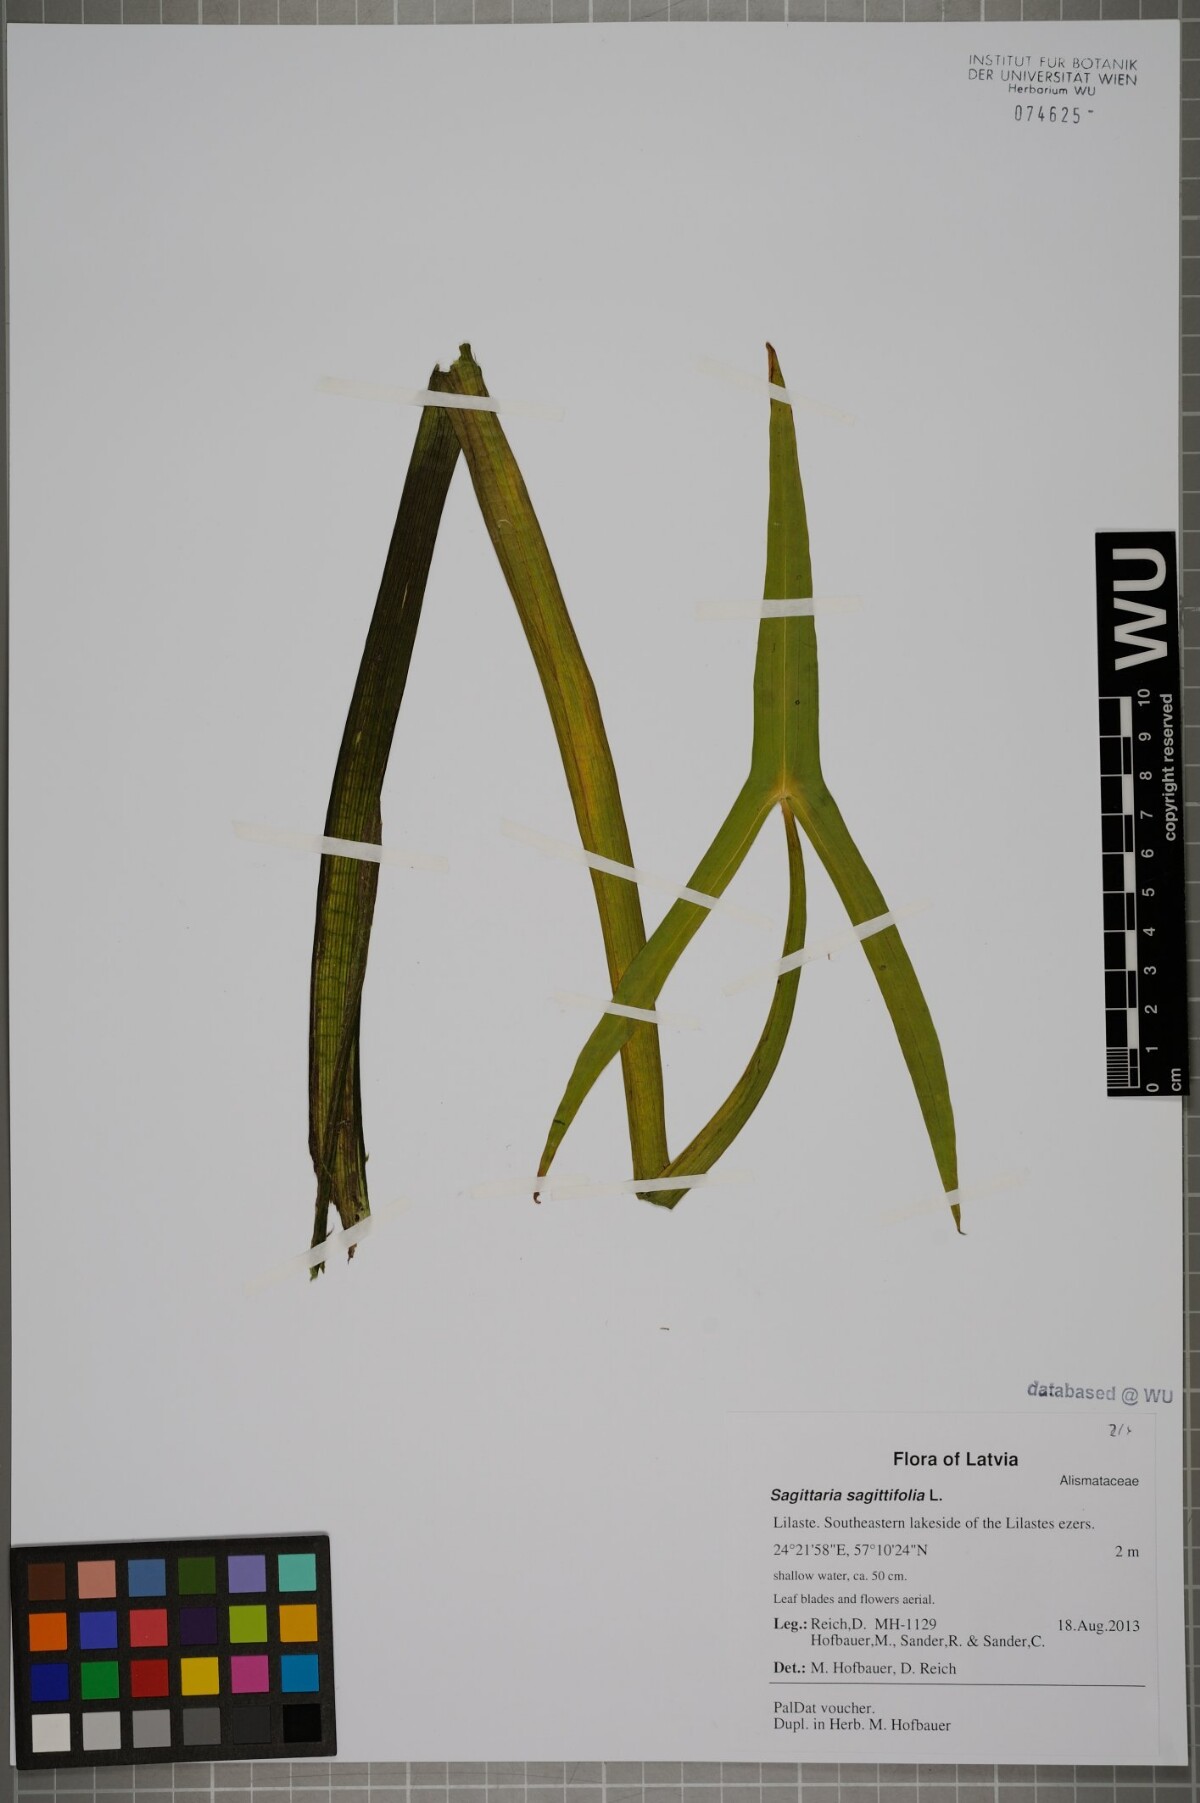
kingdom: Plantae
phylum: Tracheophyta
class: Liliopsida
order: Alismatales
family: Alismataceae
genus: Sagittaria
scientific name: Sagittaria sagittifolia
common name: Arrowhead
